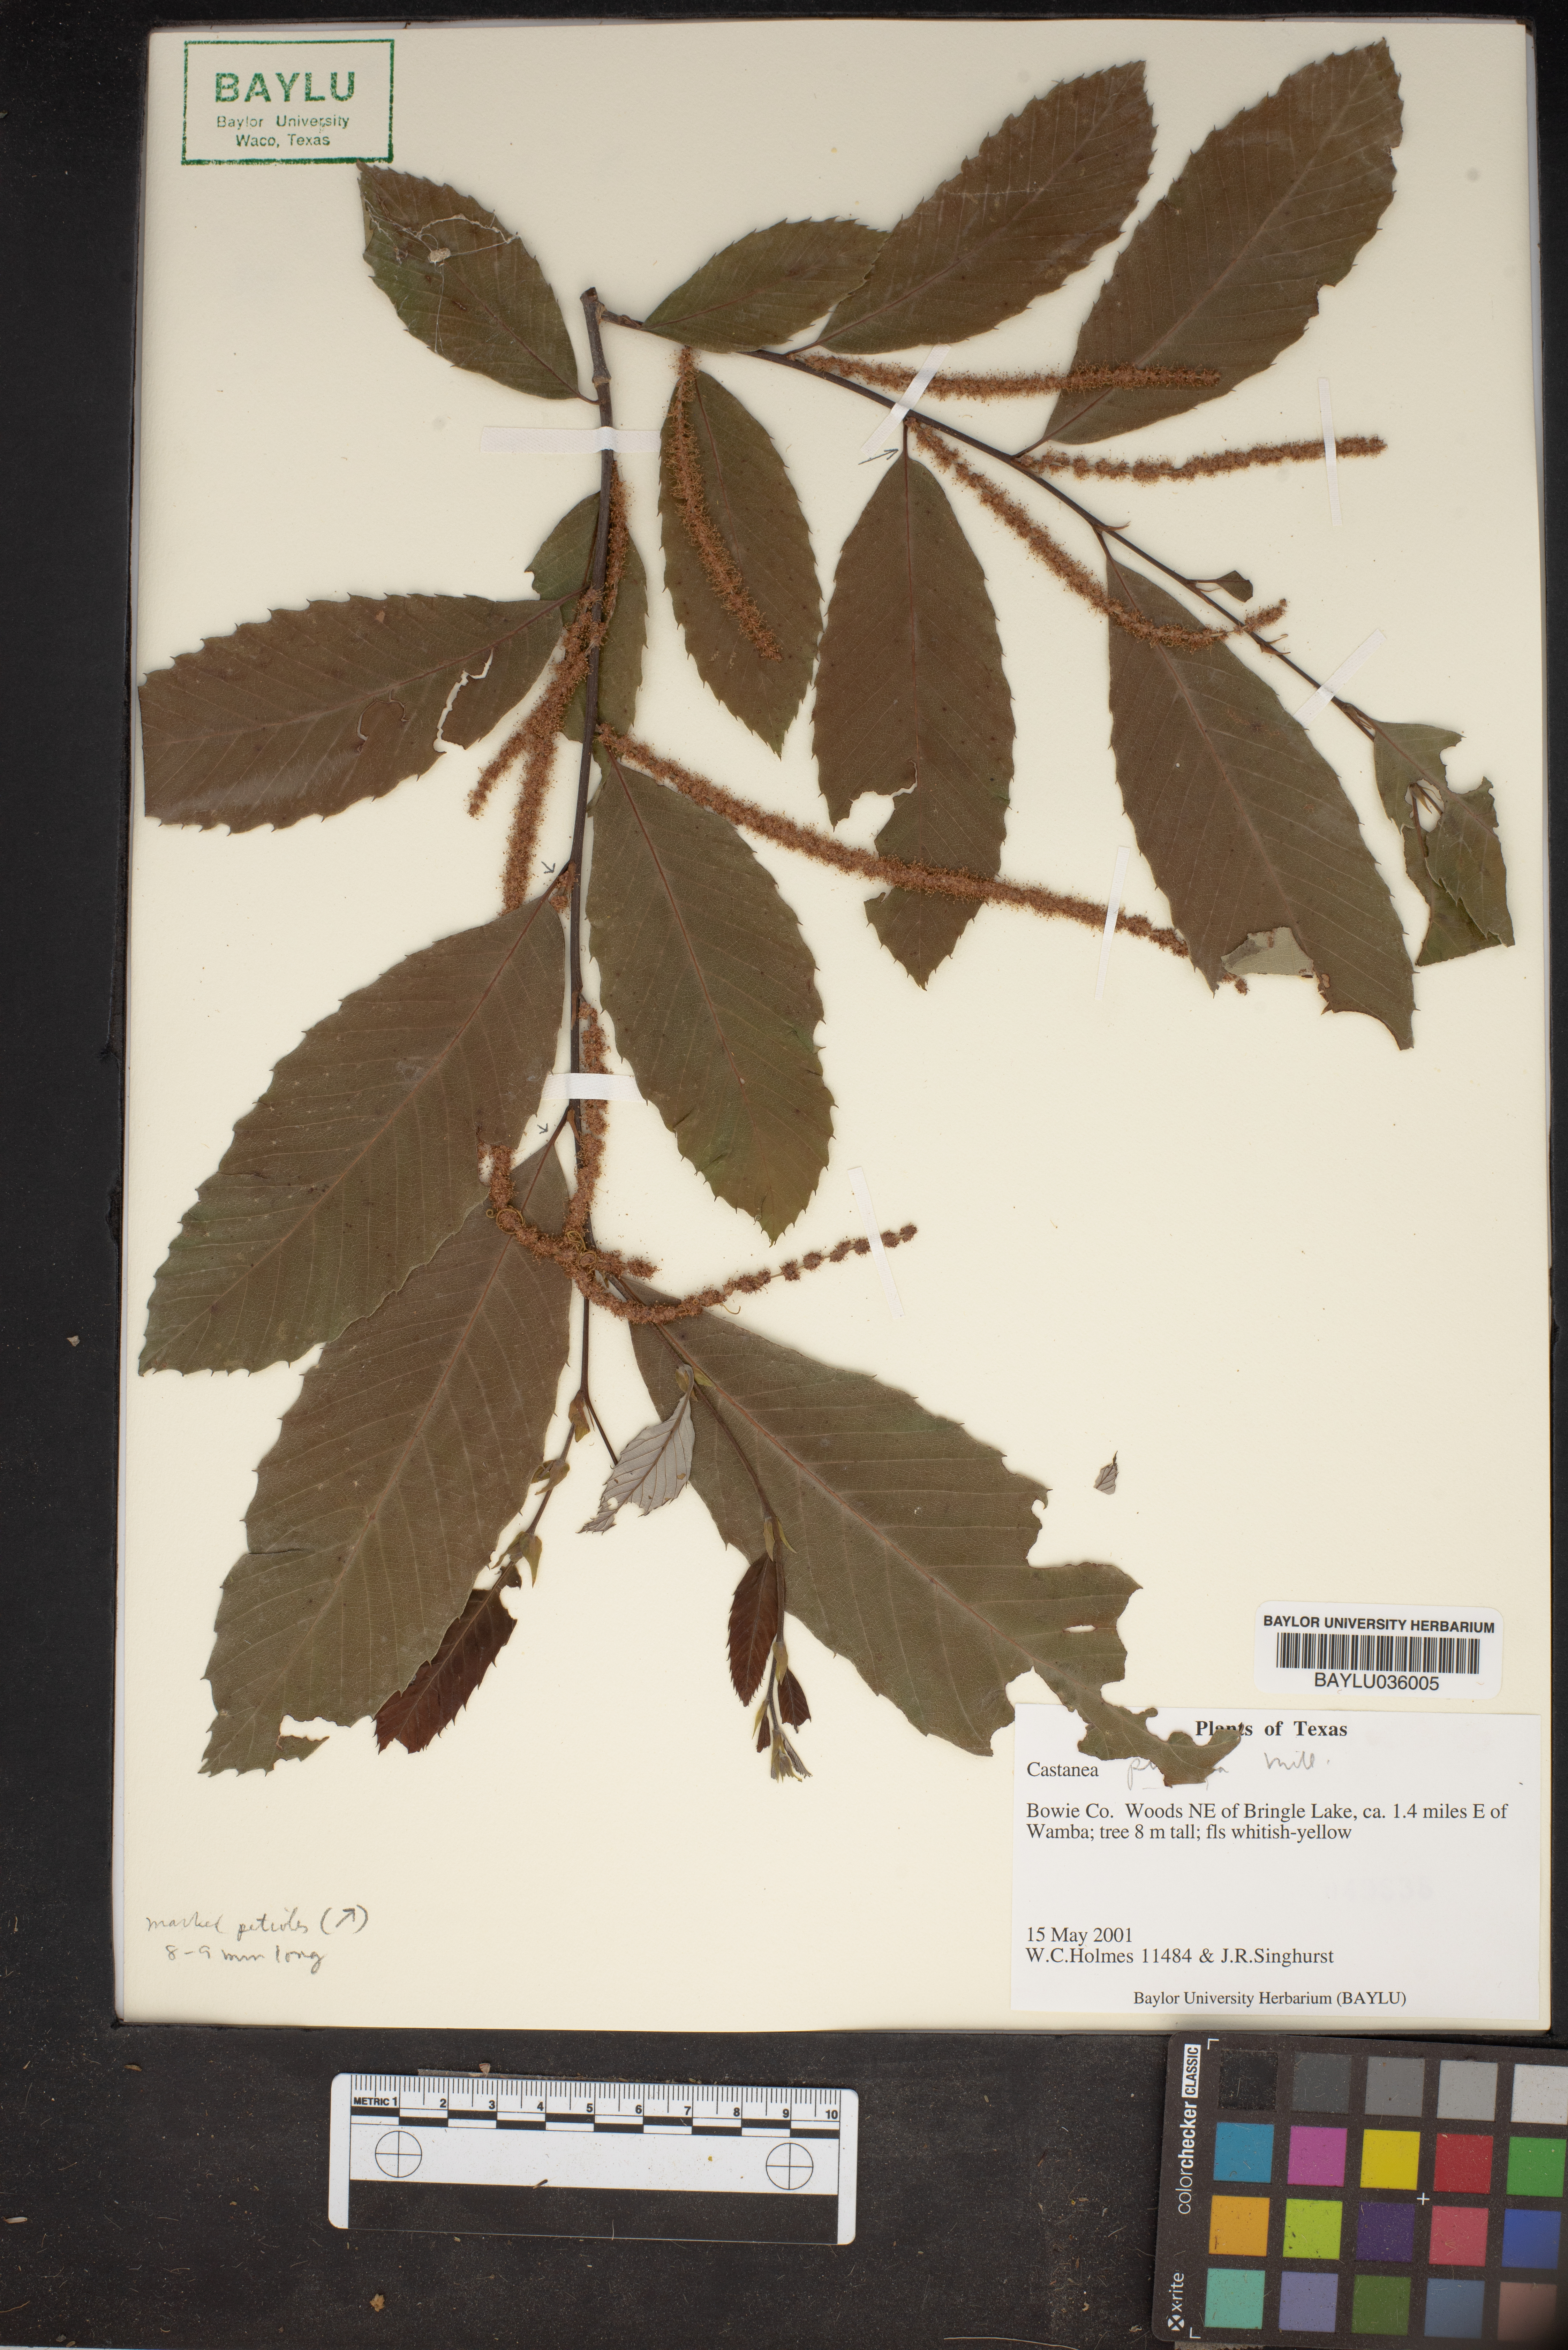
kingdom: Plantae
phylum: Tracheophyta
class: Magnoliopsida
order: Fagales
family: Fagaceae
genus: Castanea
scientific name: Castanea pumila
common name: Chinkapin
